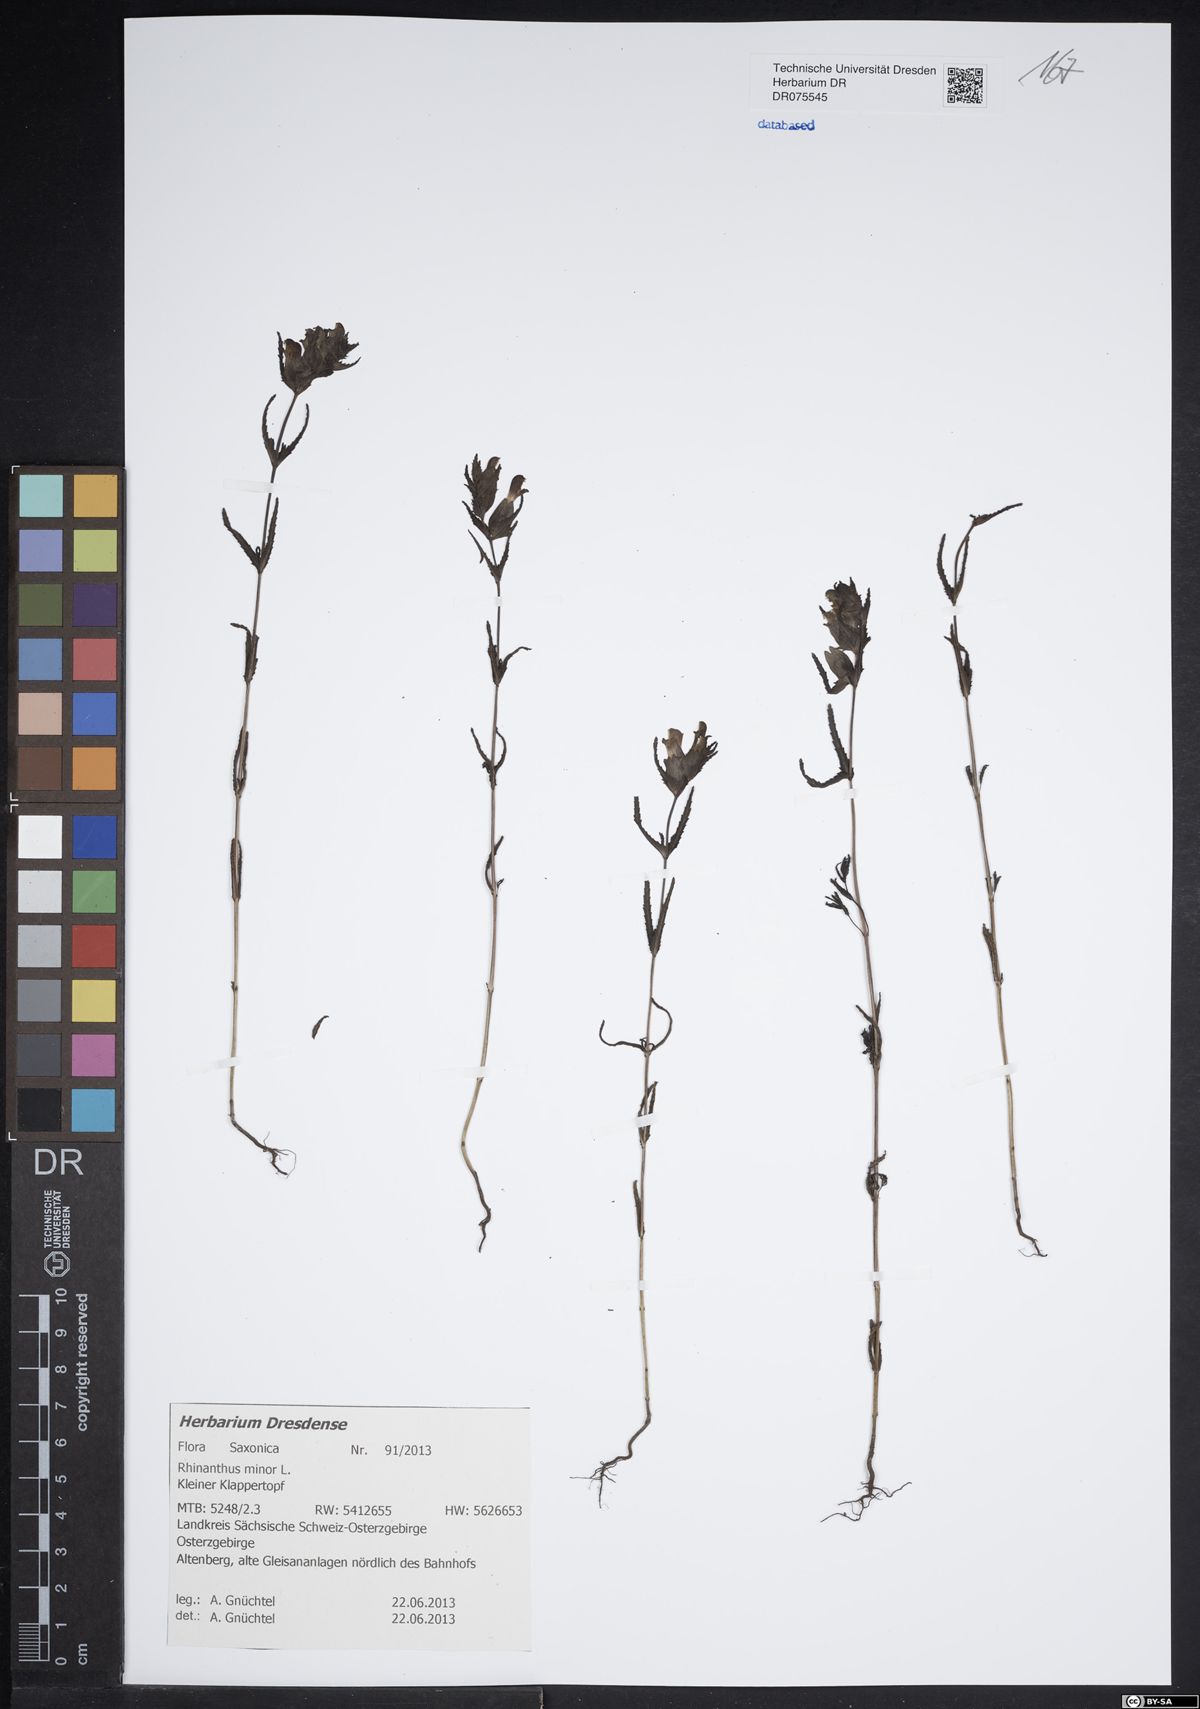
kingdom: Plantae
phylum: Tracheophyta
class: Magnoliopsida
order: Lamiales
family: Orobanchaceae
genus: Rhinanthus
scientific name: Rhinanthus minor
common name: Yellow-rattle
